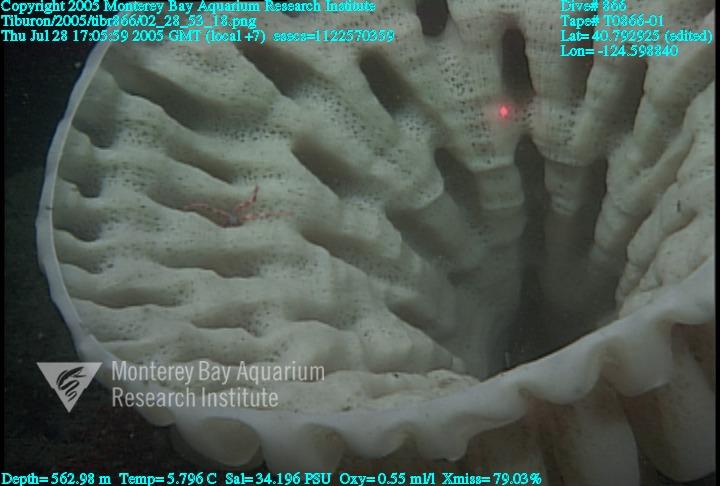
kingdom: Animalia
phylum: Porifera
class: Hexactinellida
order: Sceptrulophora
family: Aphrocallistidae
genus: Heterochone
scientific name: Heterochone calyx
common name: Fingered goblet glass sponge
